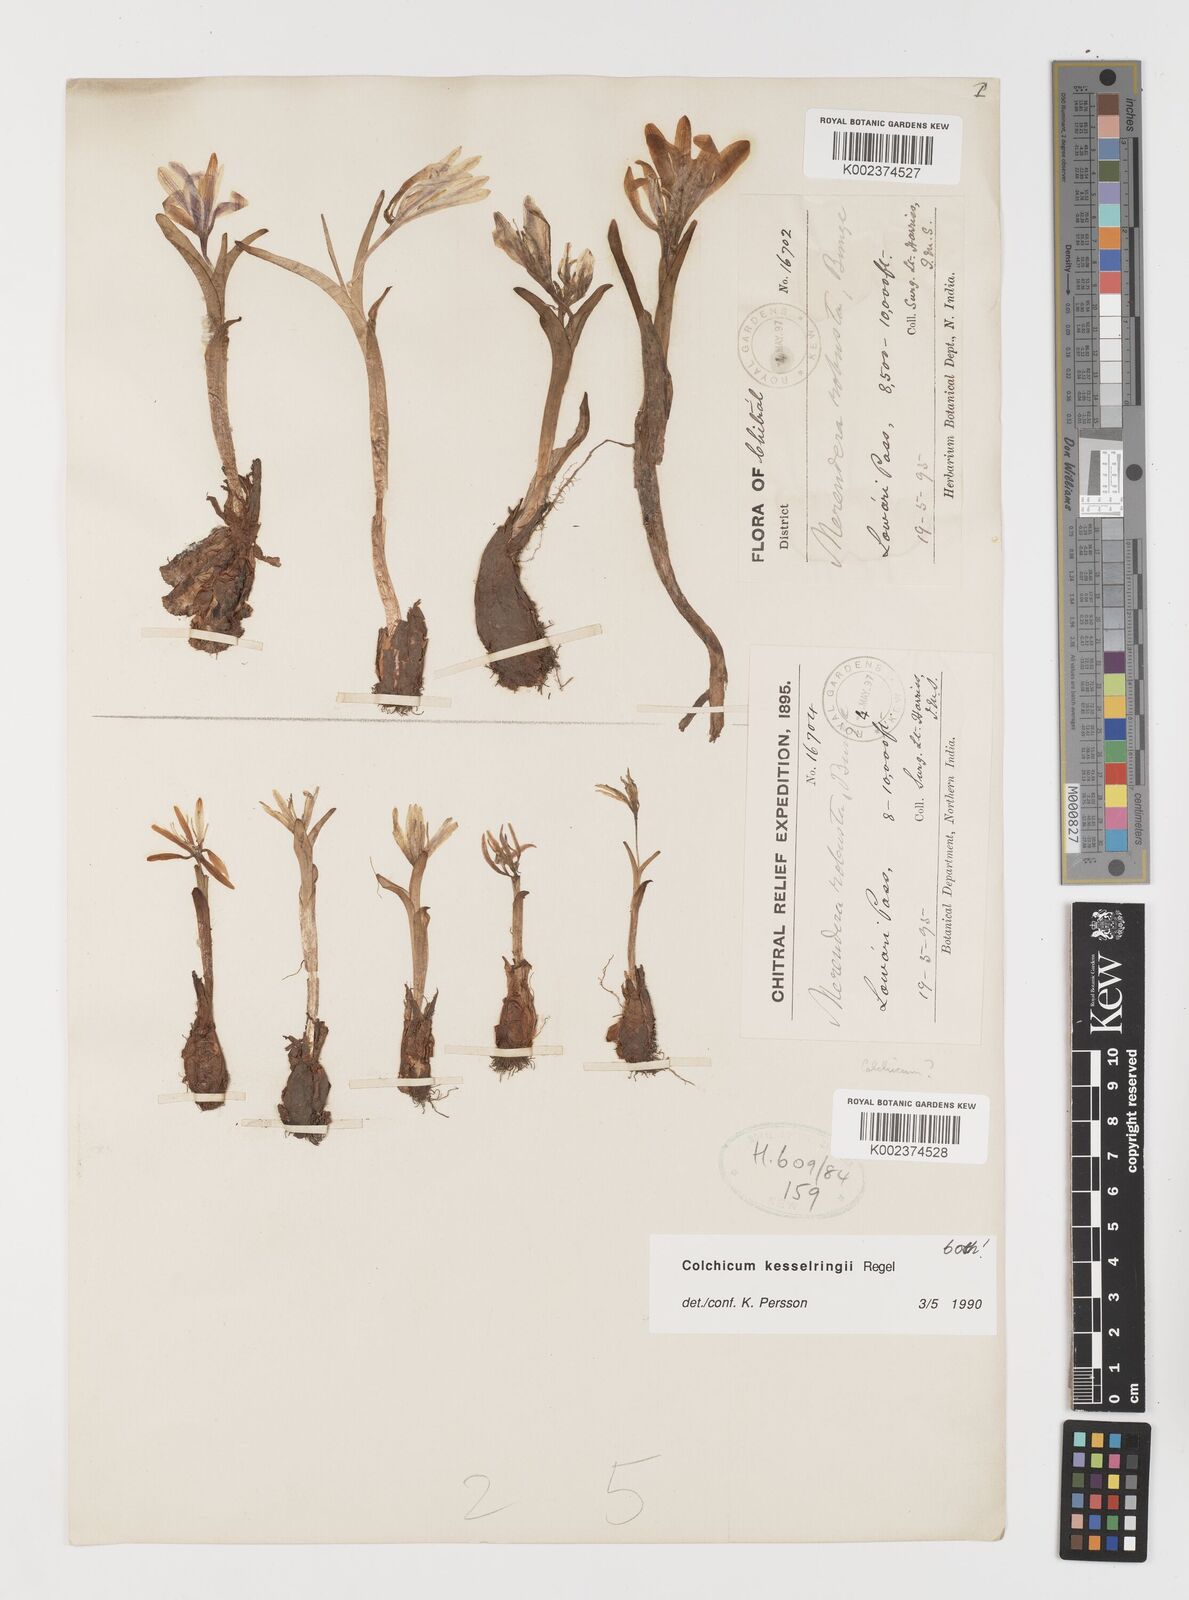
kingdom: Plantae
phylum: Tracheophyta
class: Liliopsida
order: Liliales
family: Colchicaceae
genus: Colchicum
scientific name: Colchicum kesselringii
